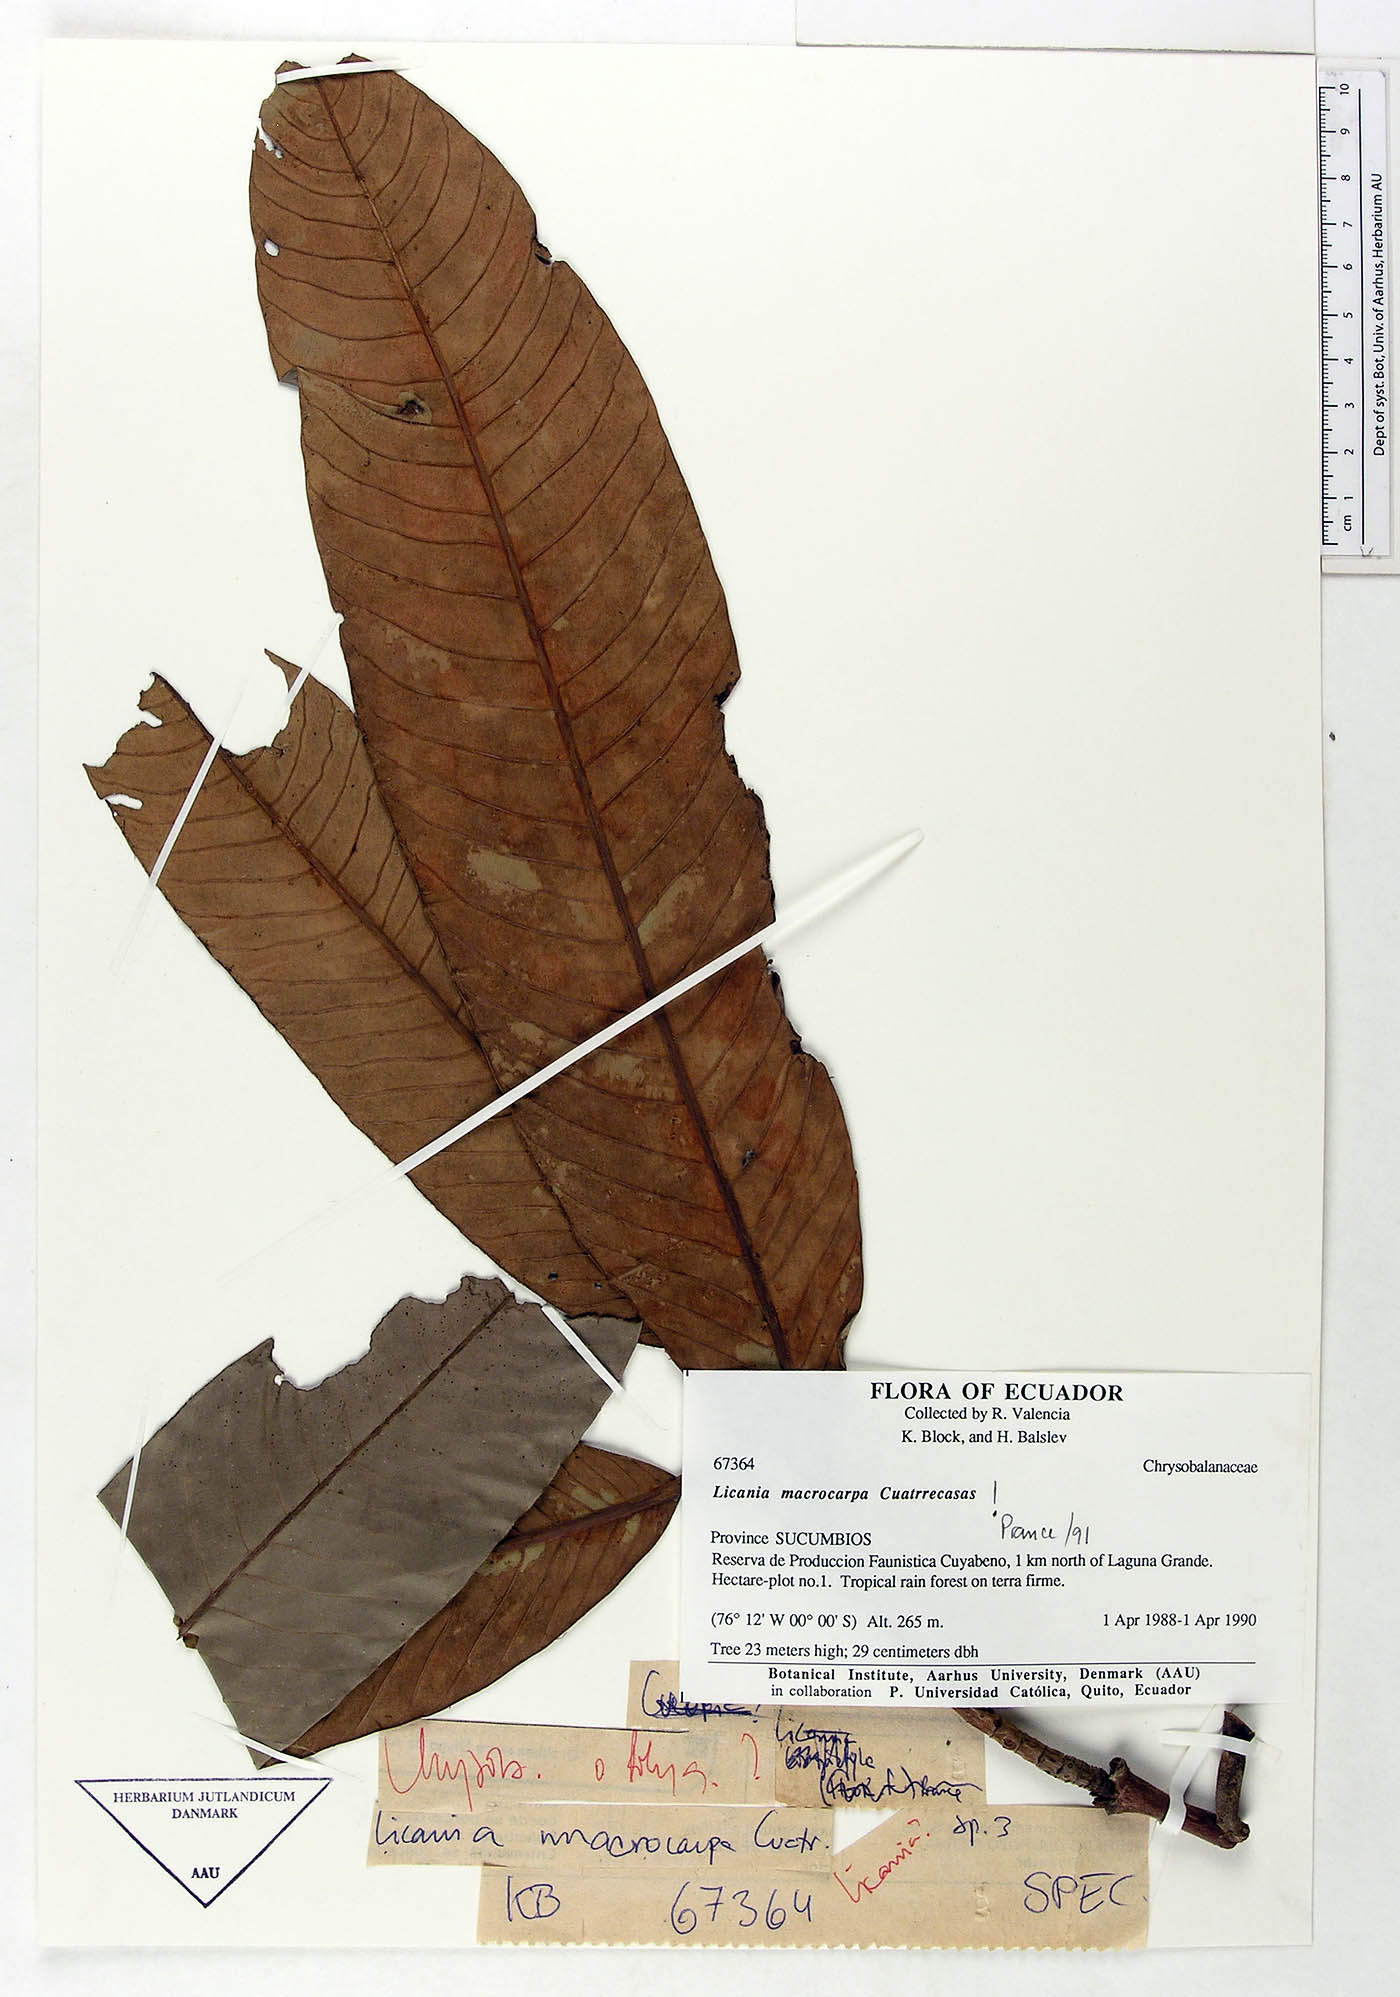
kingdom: Plantae
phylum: Tracheophyta
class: Magnoliopsida
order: Malpighiales
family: Chrysobalanaceae
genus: Moquilea
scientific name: Moquilea magnifructa
